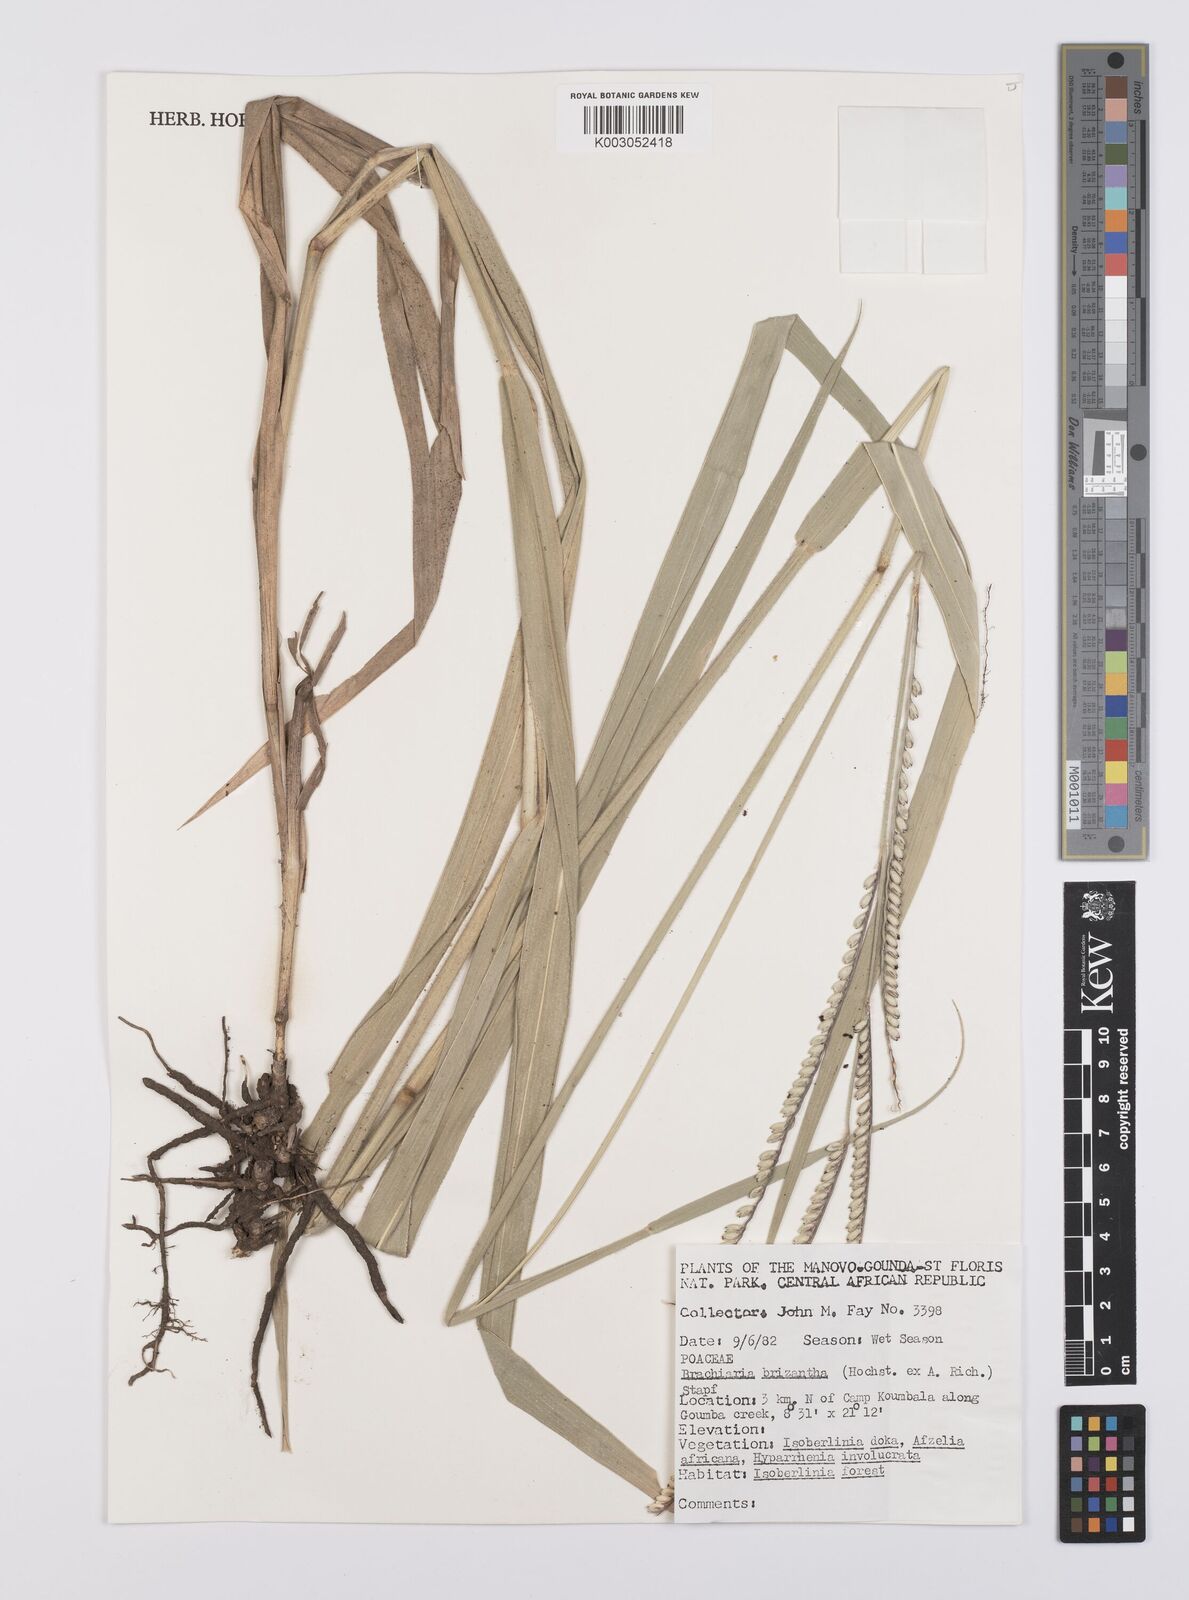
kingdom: Plantae
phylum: Tracheophyta
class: Liliopsida
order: Poales
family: Poaceae
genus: Urochloa
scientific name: Urochloa brizantha
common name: Palisade signalgrass
